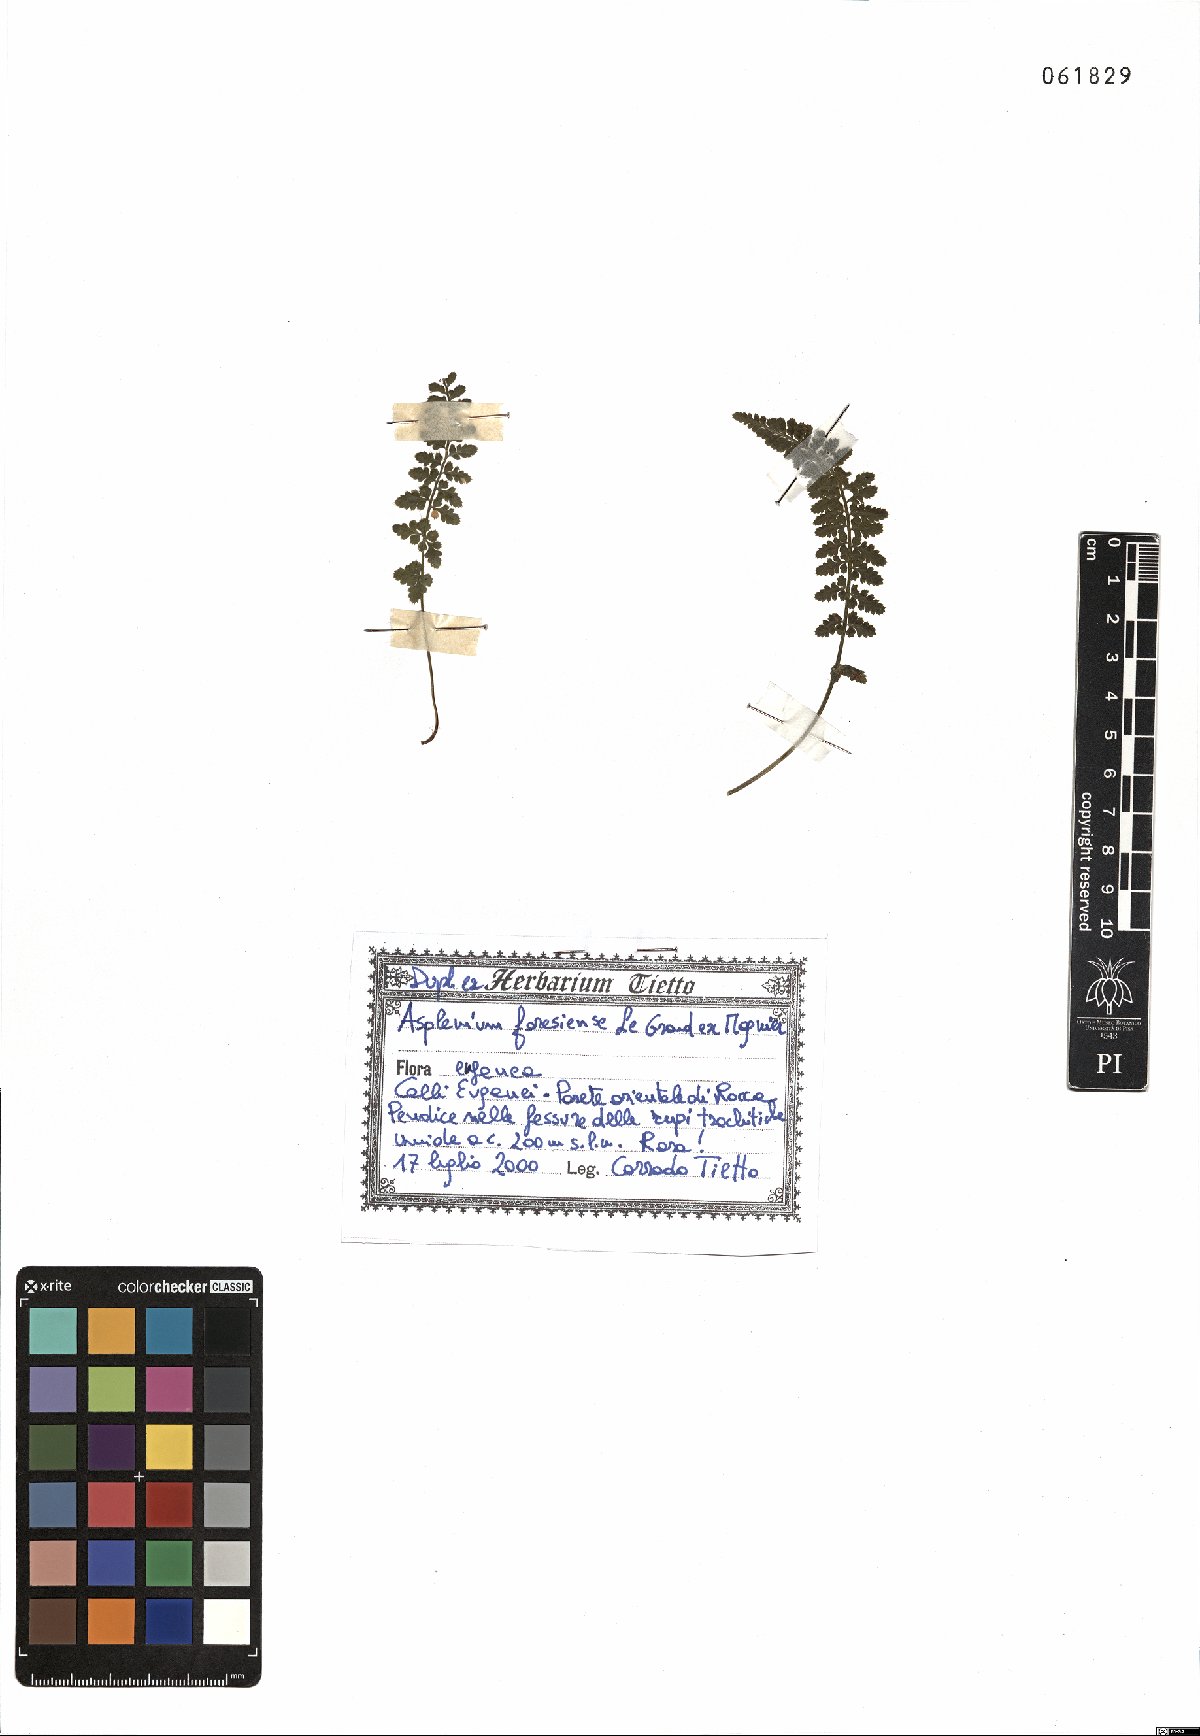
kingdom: Plantae
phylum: Tracheophyta
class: Polypodiopsida
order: Polypodiales
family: Aspleniaceae
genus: Asplenium
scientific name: Asplenium foreziense
